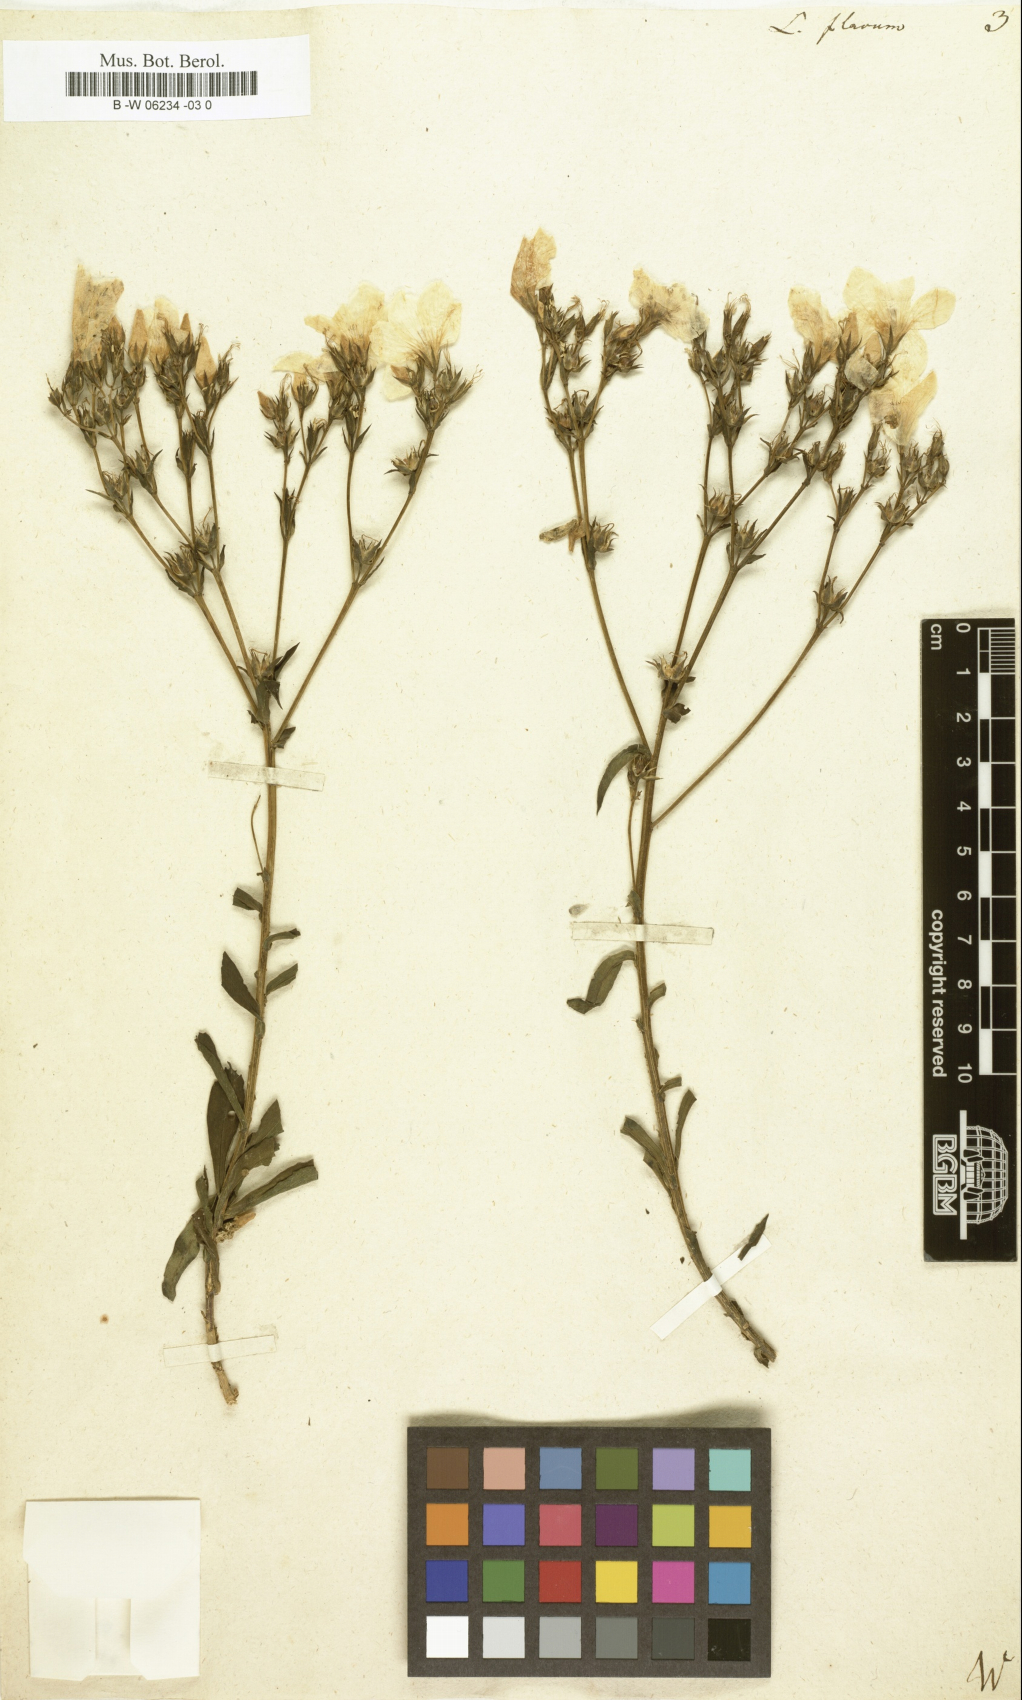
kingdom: Plantae
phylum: Tracheophyta
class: Magnoliopsida
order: Malpighiales
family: Linaceae
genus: Linum
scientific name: Linum flavum
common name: Yellow flax
